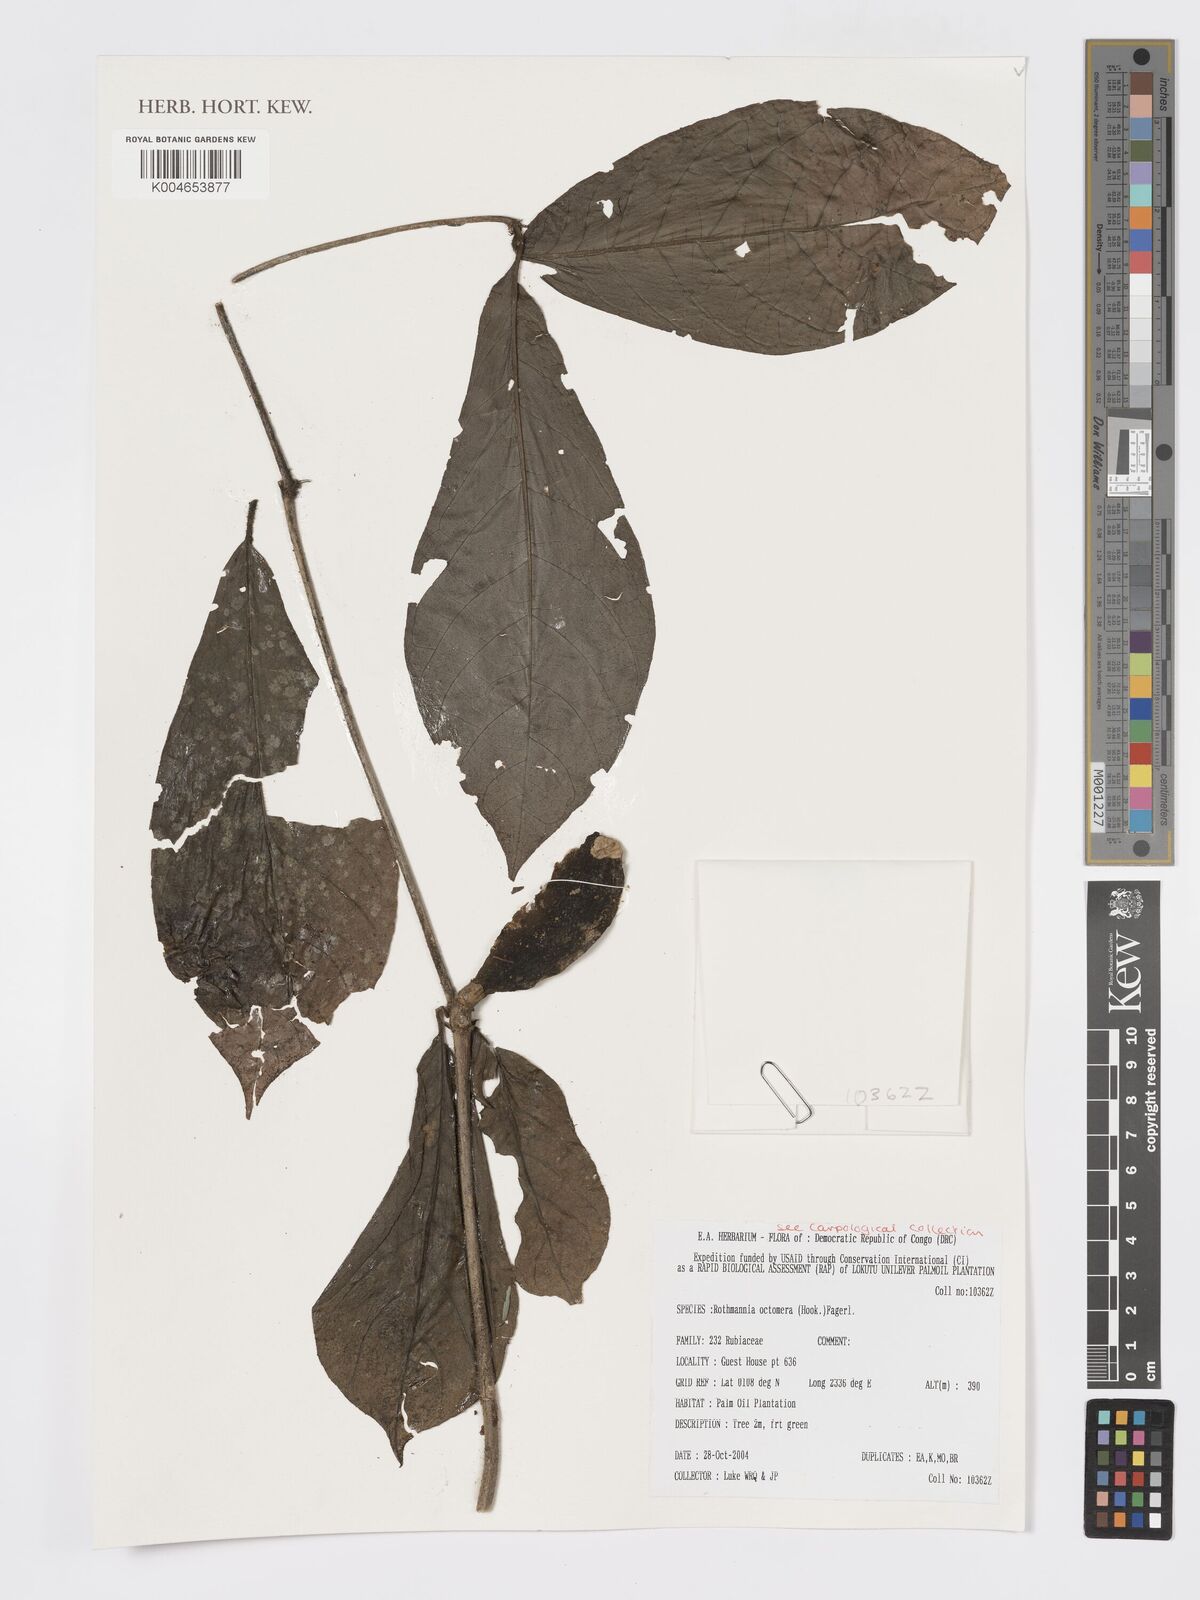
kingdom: Plantae
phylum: Tracheophyta
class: Magnoliopsida
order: Gentianales
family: Rubiaceae
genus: Rothmannia
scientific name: Rothmannia octomera
